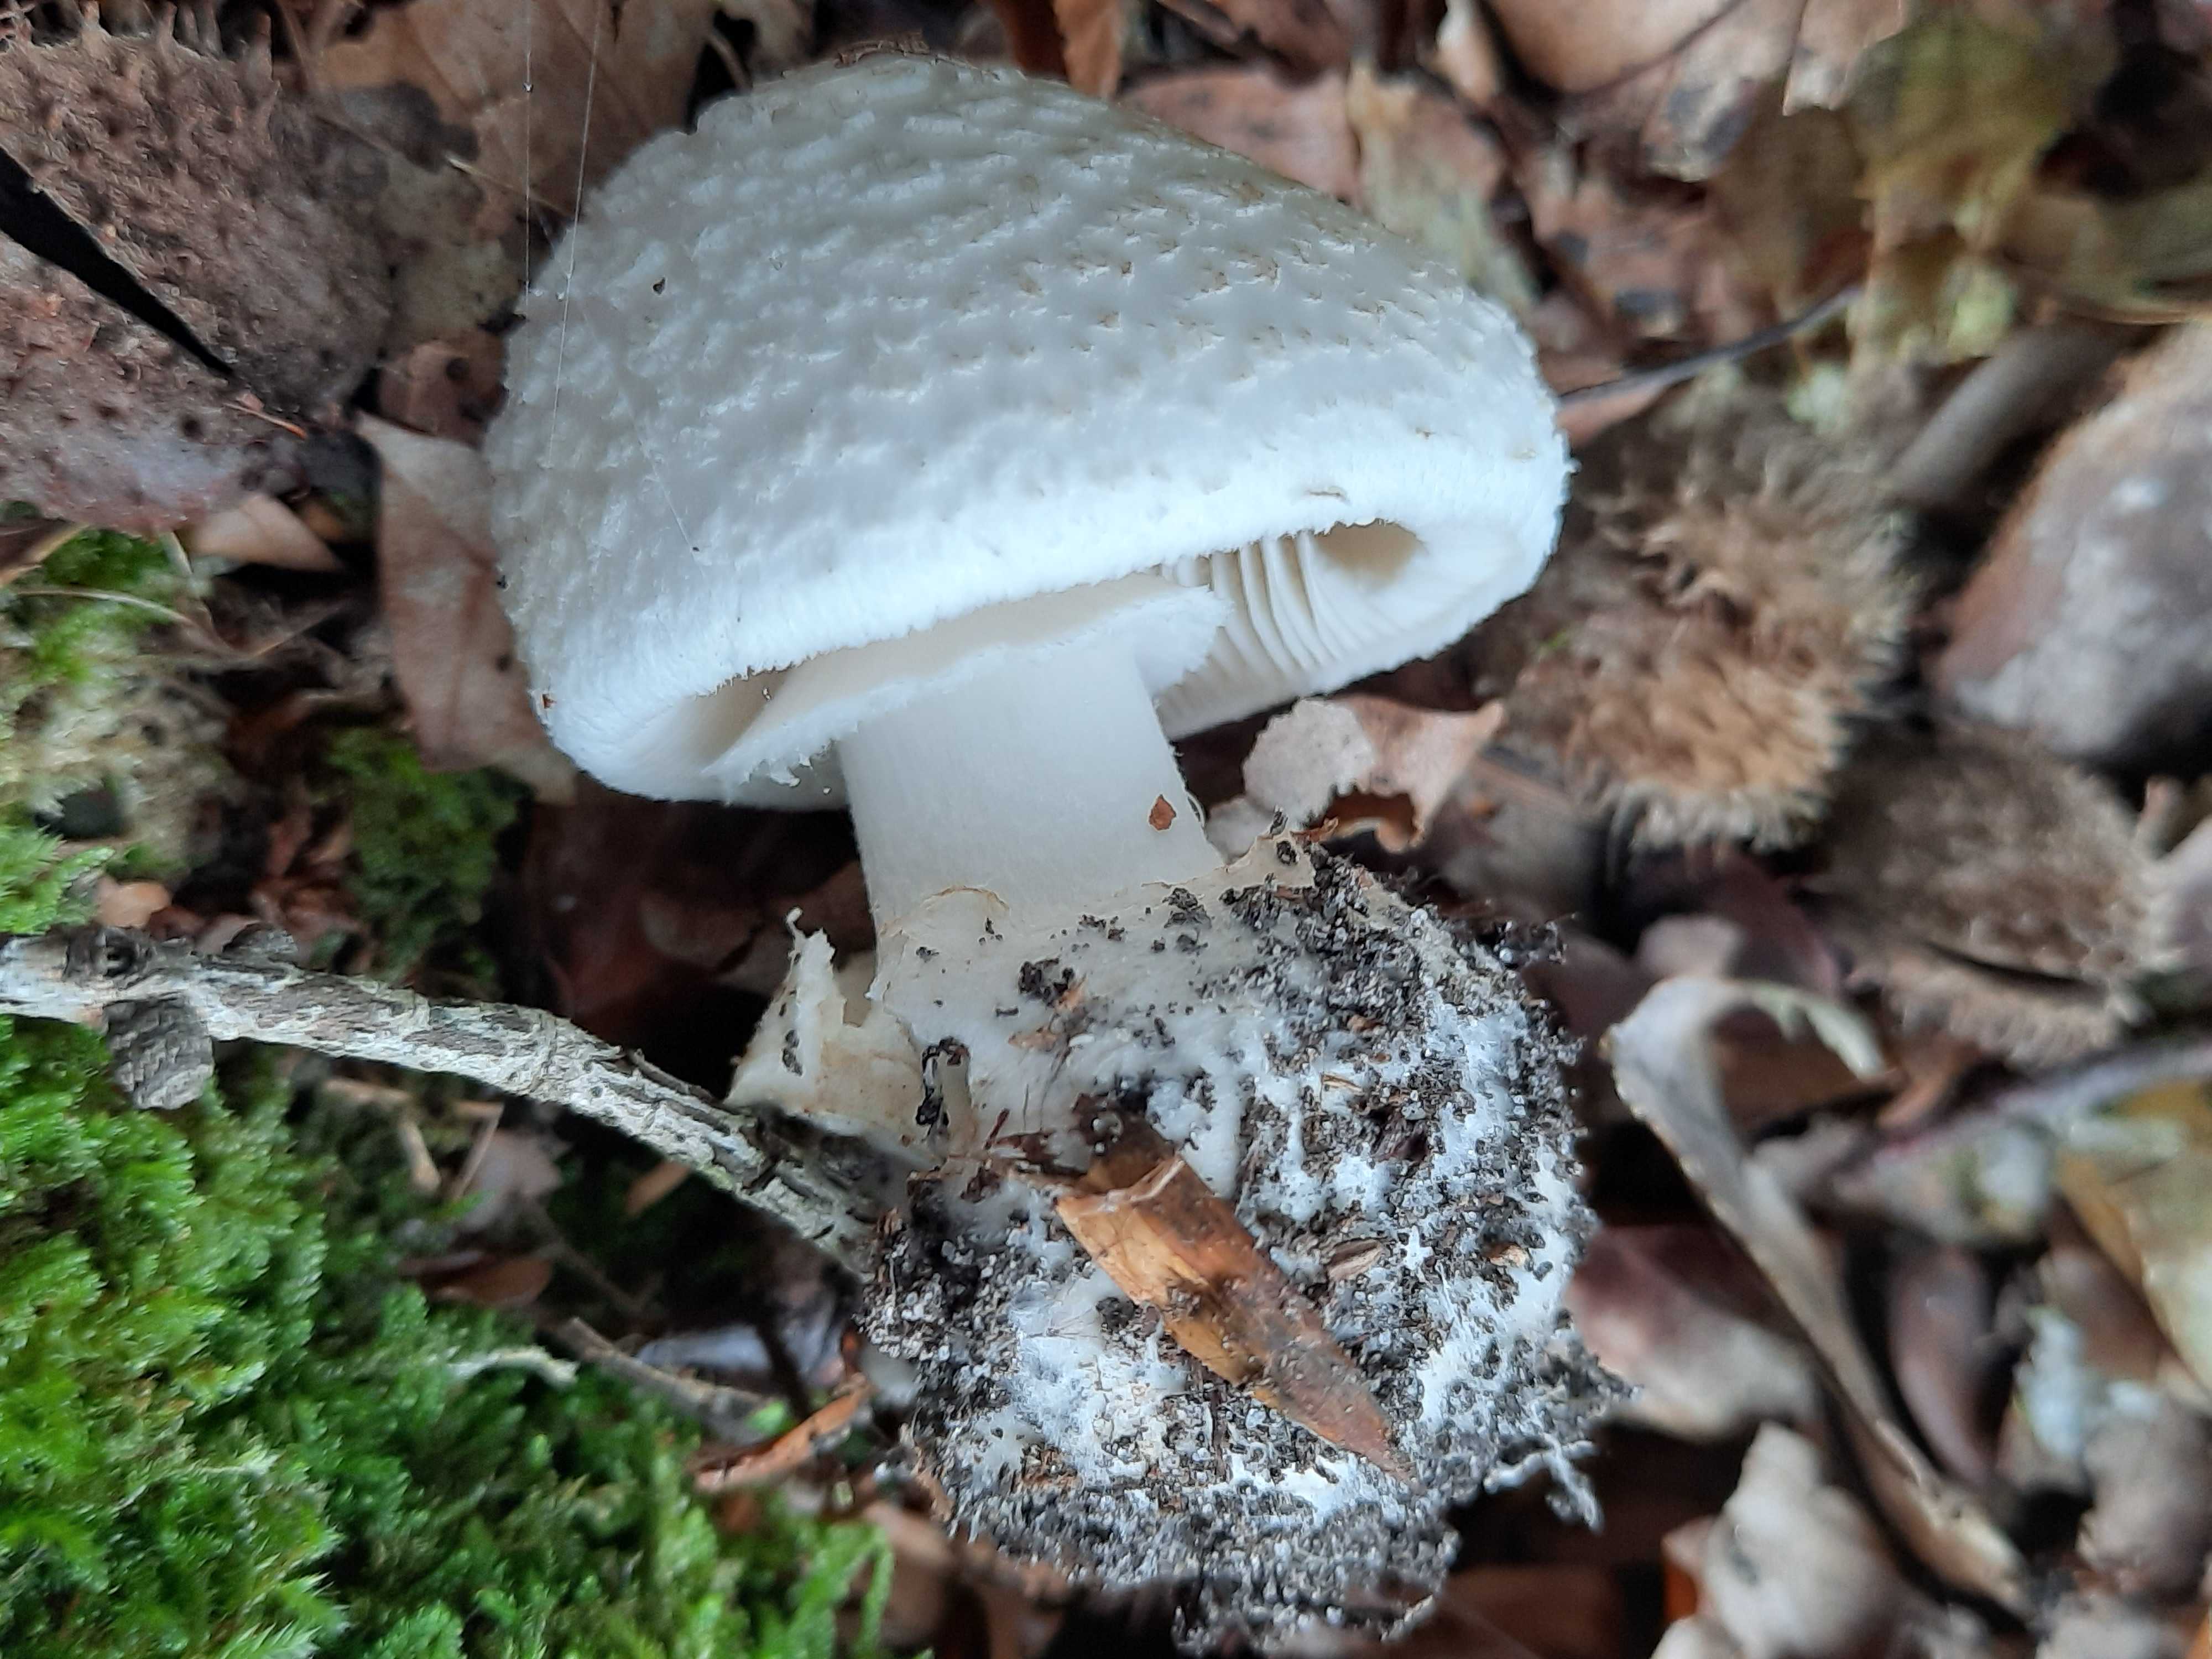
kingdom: Fungi
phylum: Basidiomycota
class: Agaricomycetes
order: Agaricales
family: Amanitaceae
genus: Amanita
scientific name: Amanita citrina
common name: kugleknoldet fluesvamp
